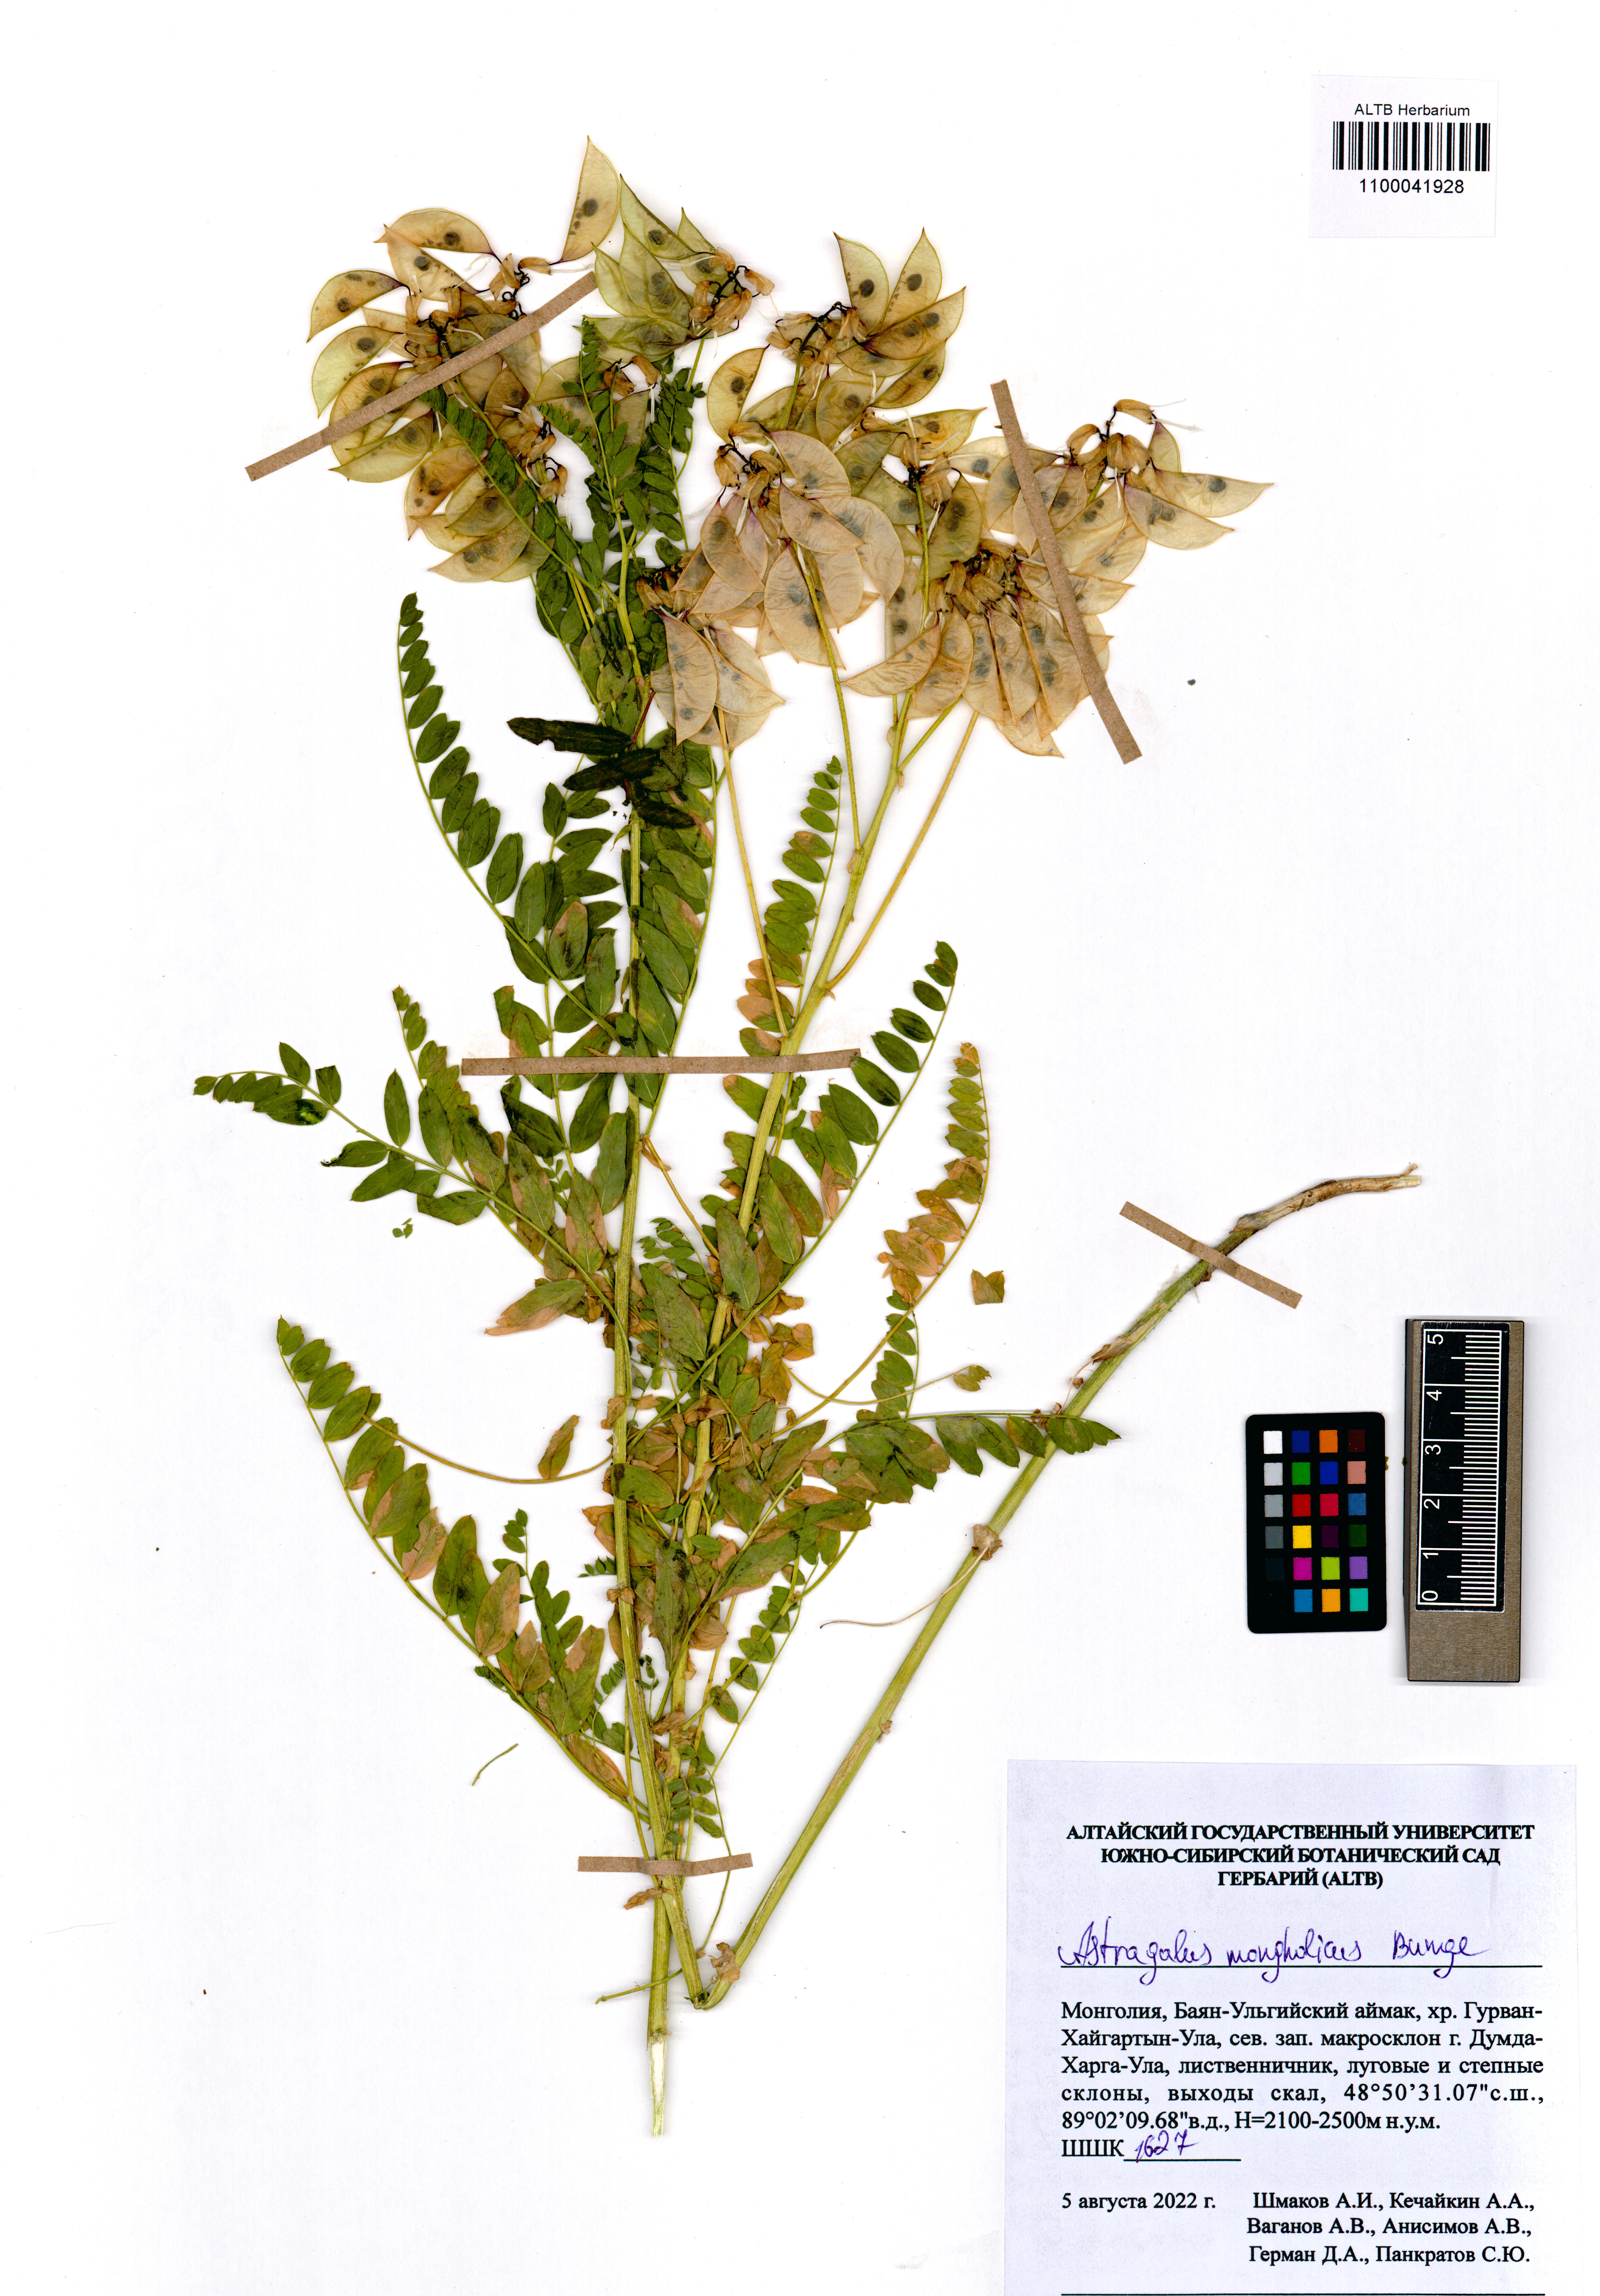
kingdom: Plantae
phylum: Tracheophyta
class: Magnoliopsida
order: Fabales
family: Fabaceae
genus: Astragalus
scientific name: Astragalus mongholicus
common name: Membranous milk-vetch
